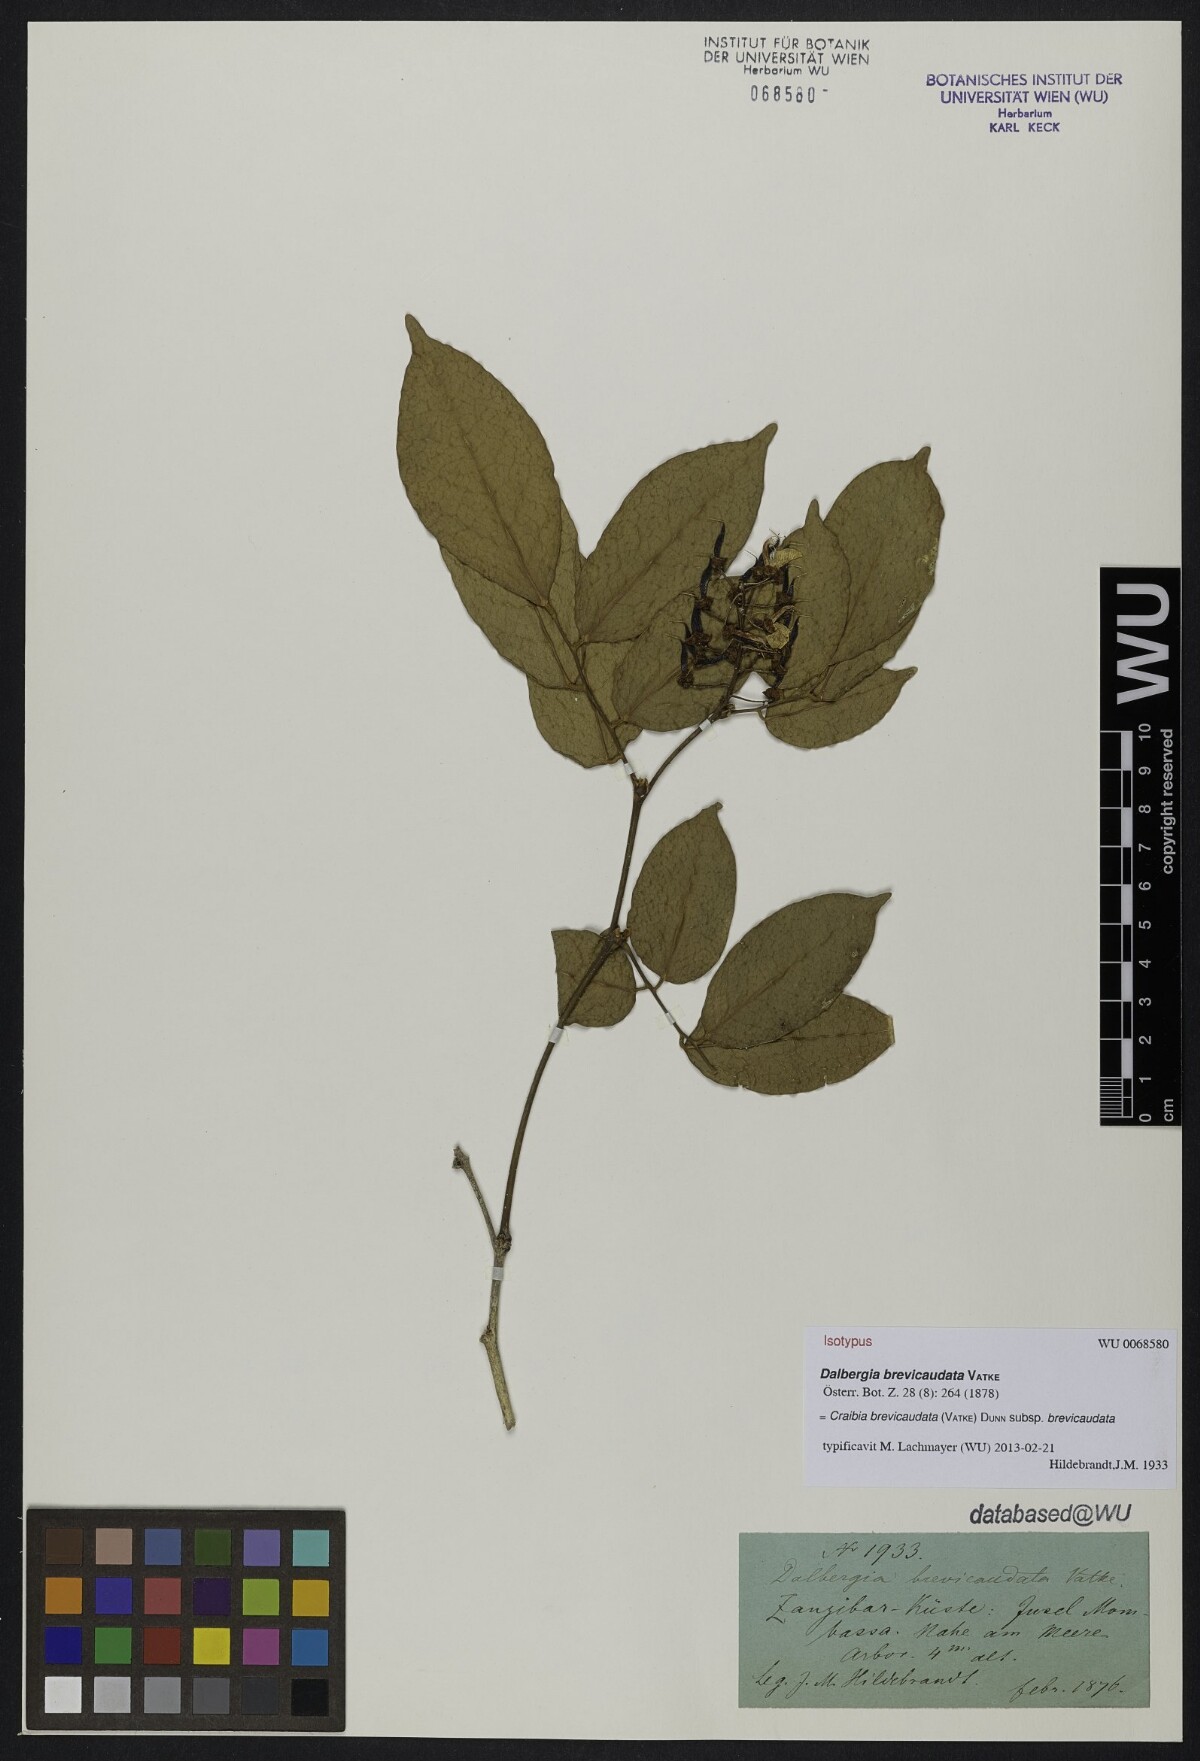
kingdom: Plantae
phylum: Tracheophyta
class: Magnoliopsida
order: Fabales
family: Fabaceae
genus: Craibia
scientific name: Craibia brevicaudata
